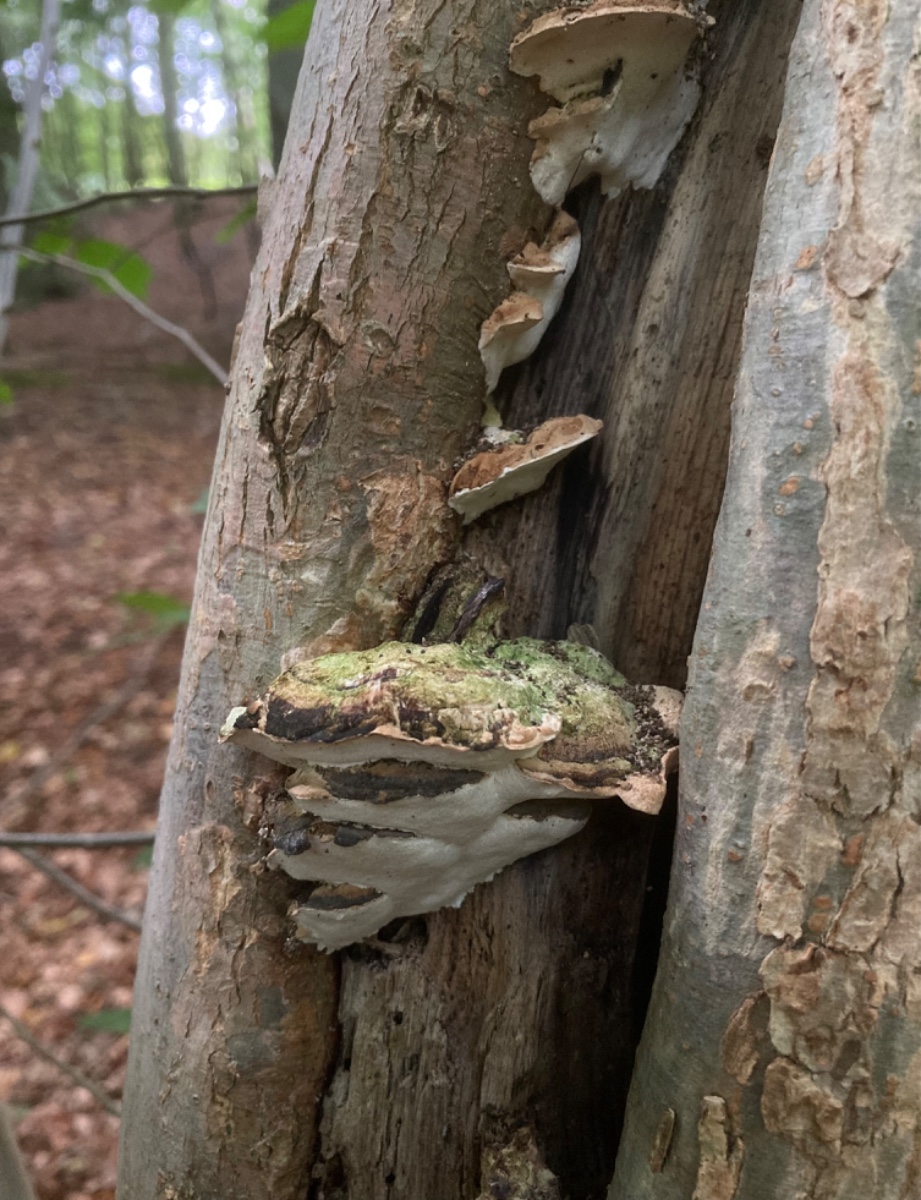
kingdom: Fungi
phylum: Basidiomycota
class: Agaricomycetes
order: Hymenochaetales
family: Oxyporaceae
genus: Oxyporus
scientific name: Oxyporus populinus
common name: sammenvokset trylleporesvamp
